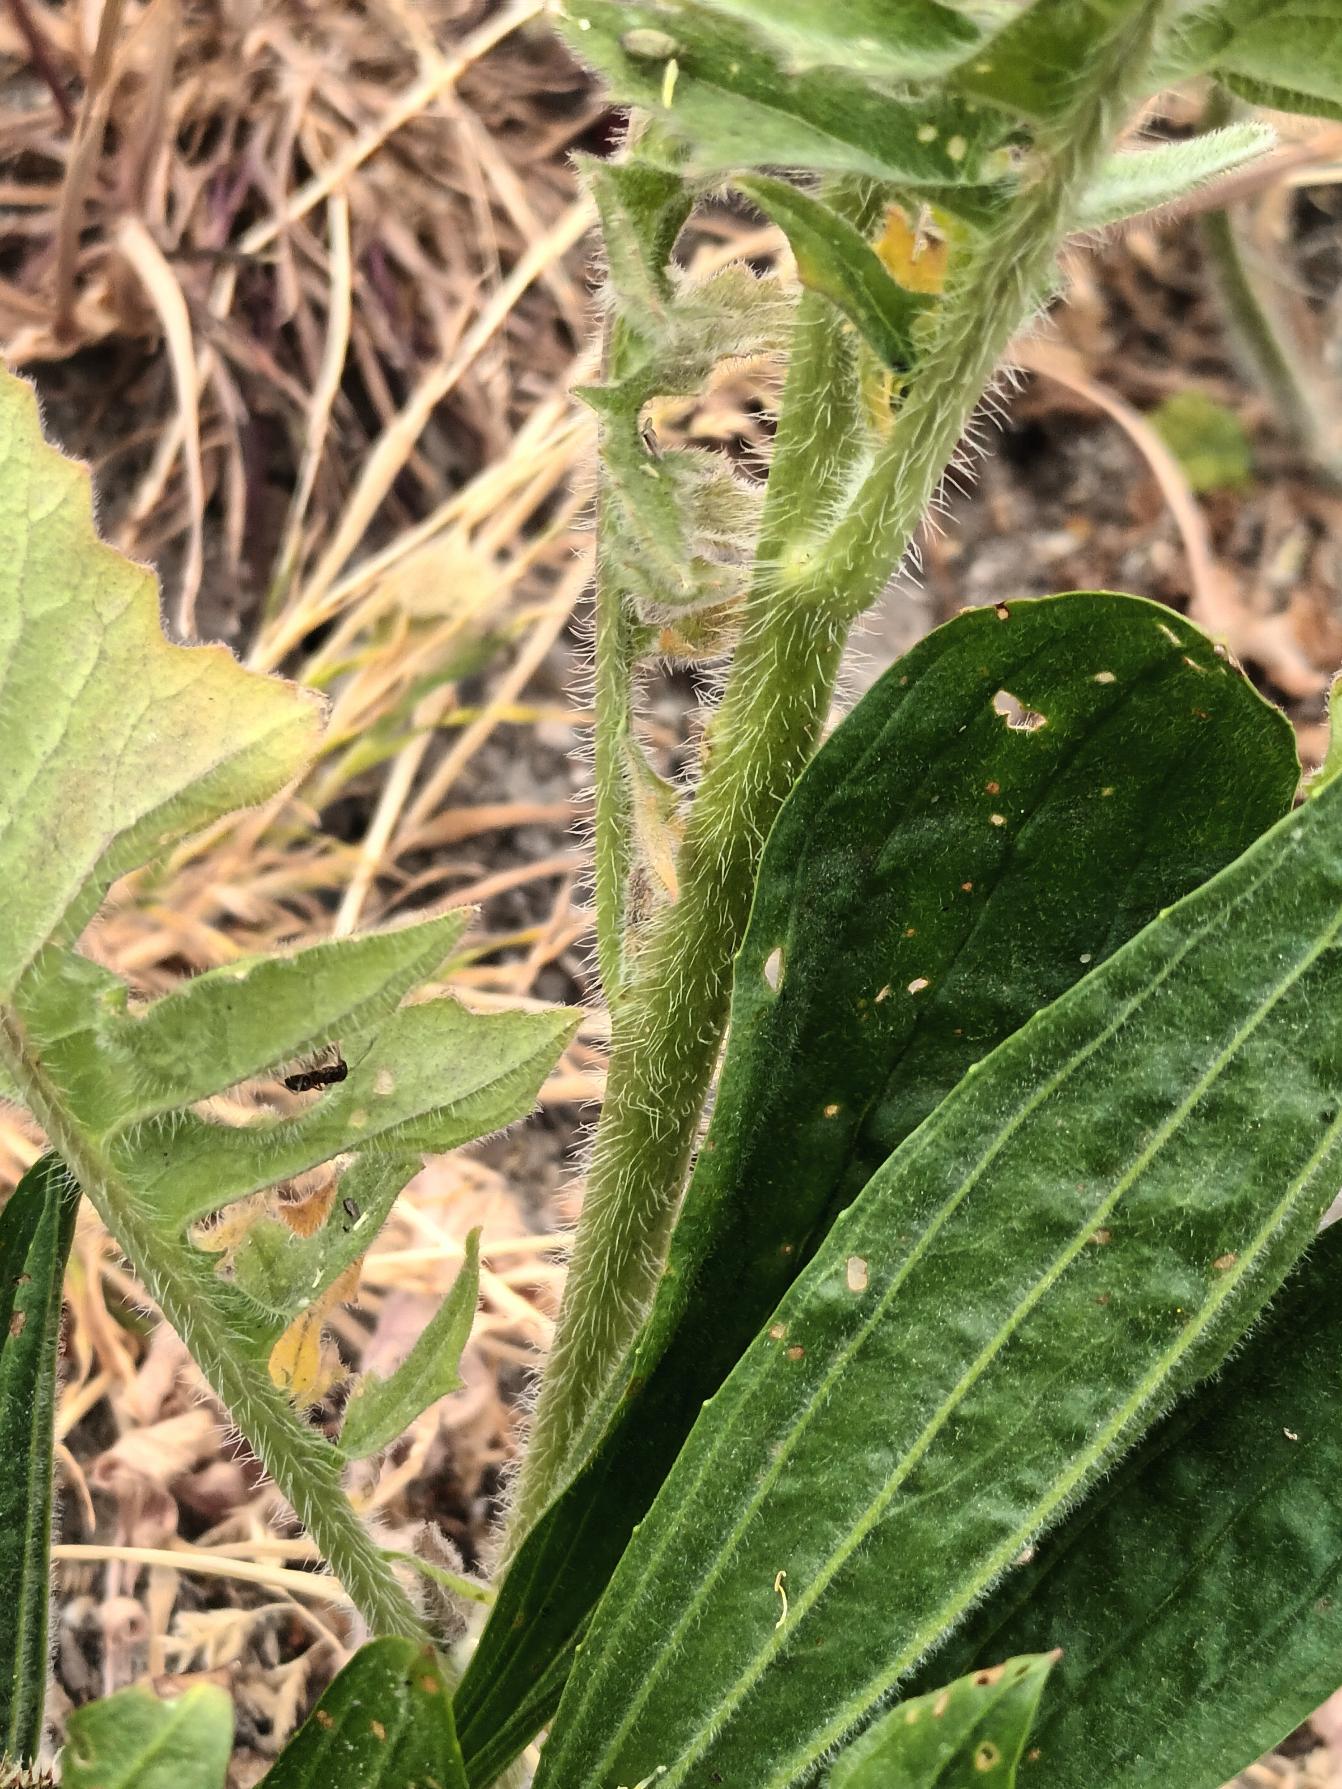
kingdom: Plantae
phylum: Tracheophyta
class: Magnoliopsida
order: Brassicales
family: Brassicaceae
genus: Sisymbrium
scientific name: Sisymbrium loeselii
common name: Stivhåret vejsennep
